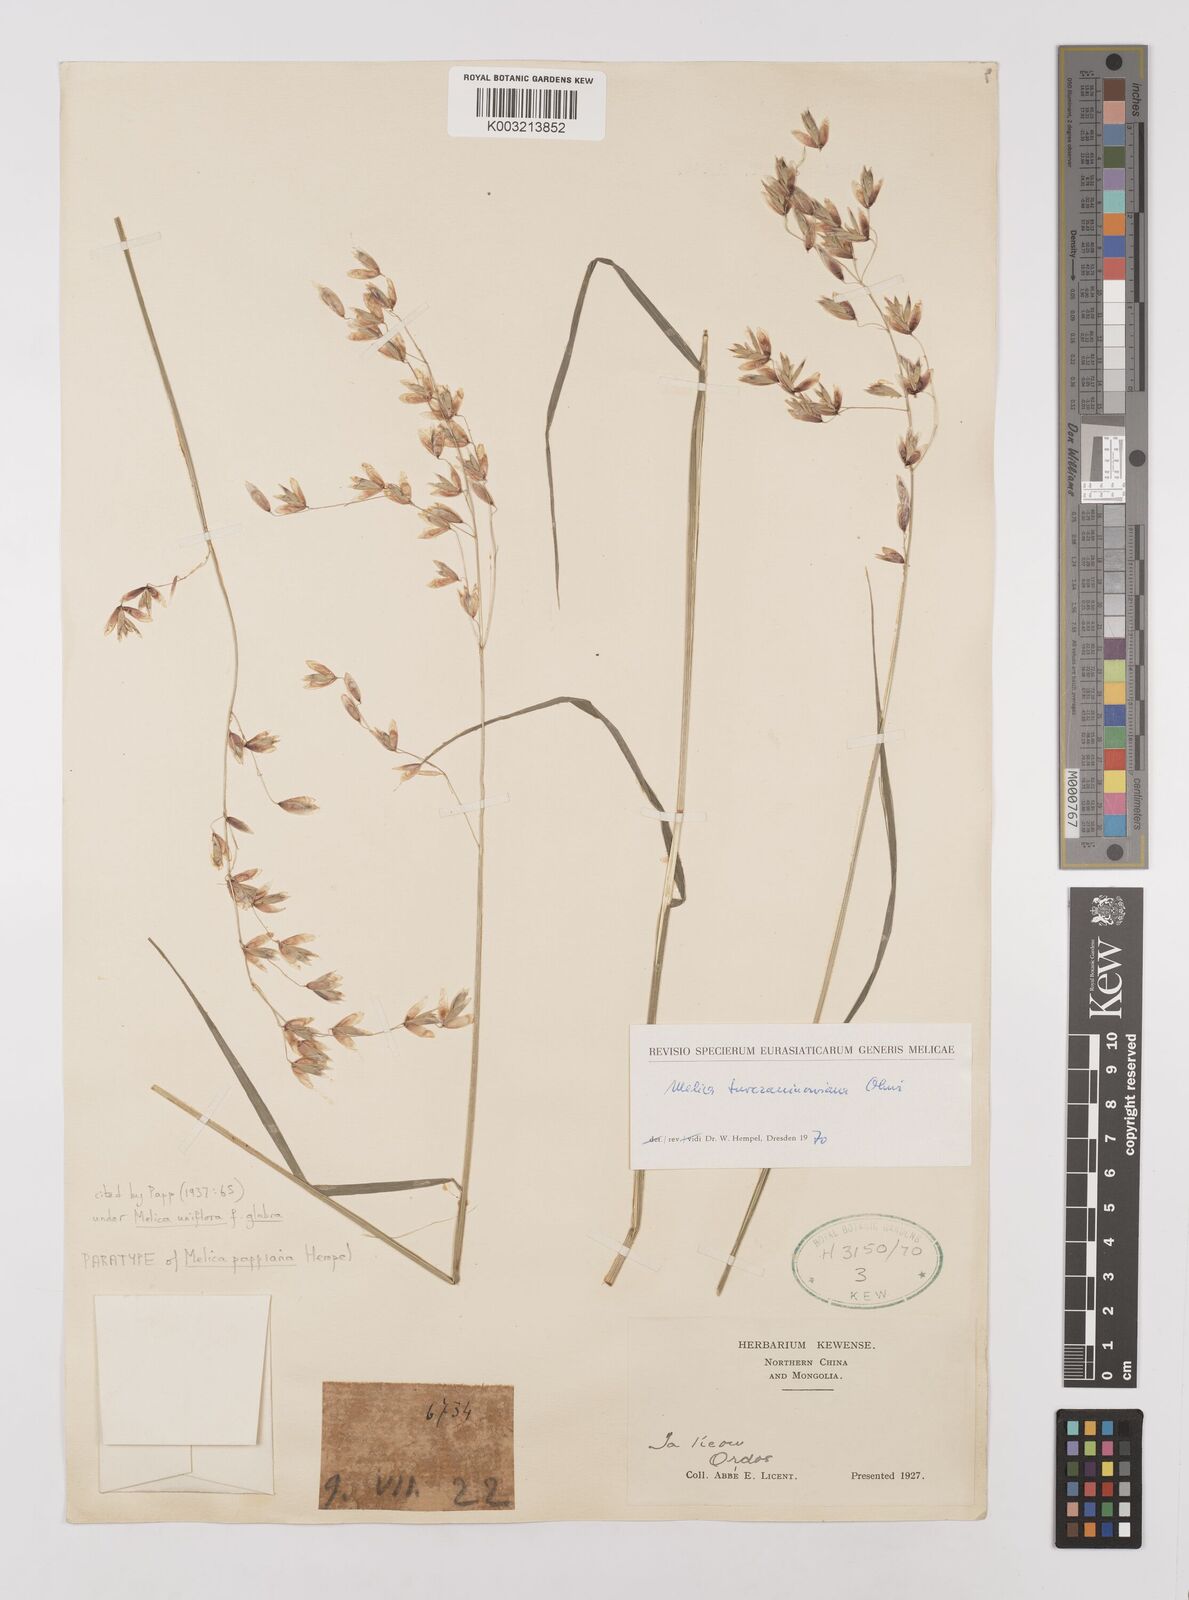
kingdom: Plantae
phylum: Tracheophyta
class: Liliopsida
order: Poales
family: Poaceae
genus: Melica
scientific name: Melica turczaninowiana
